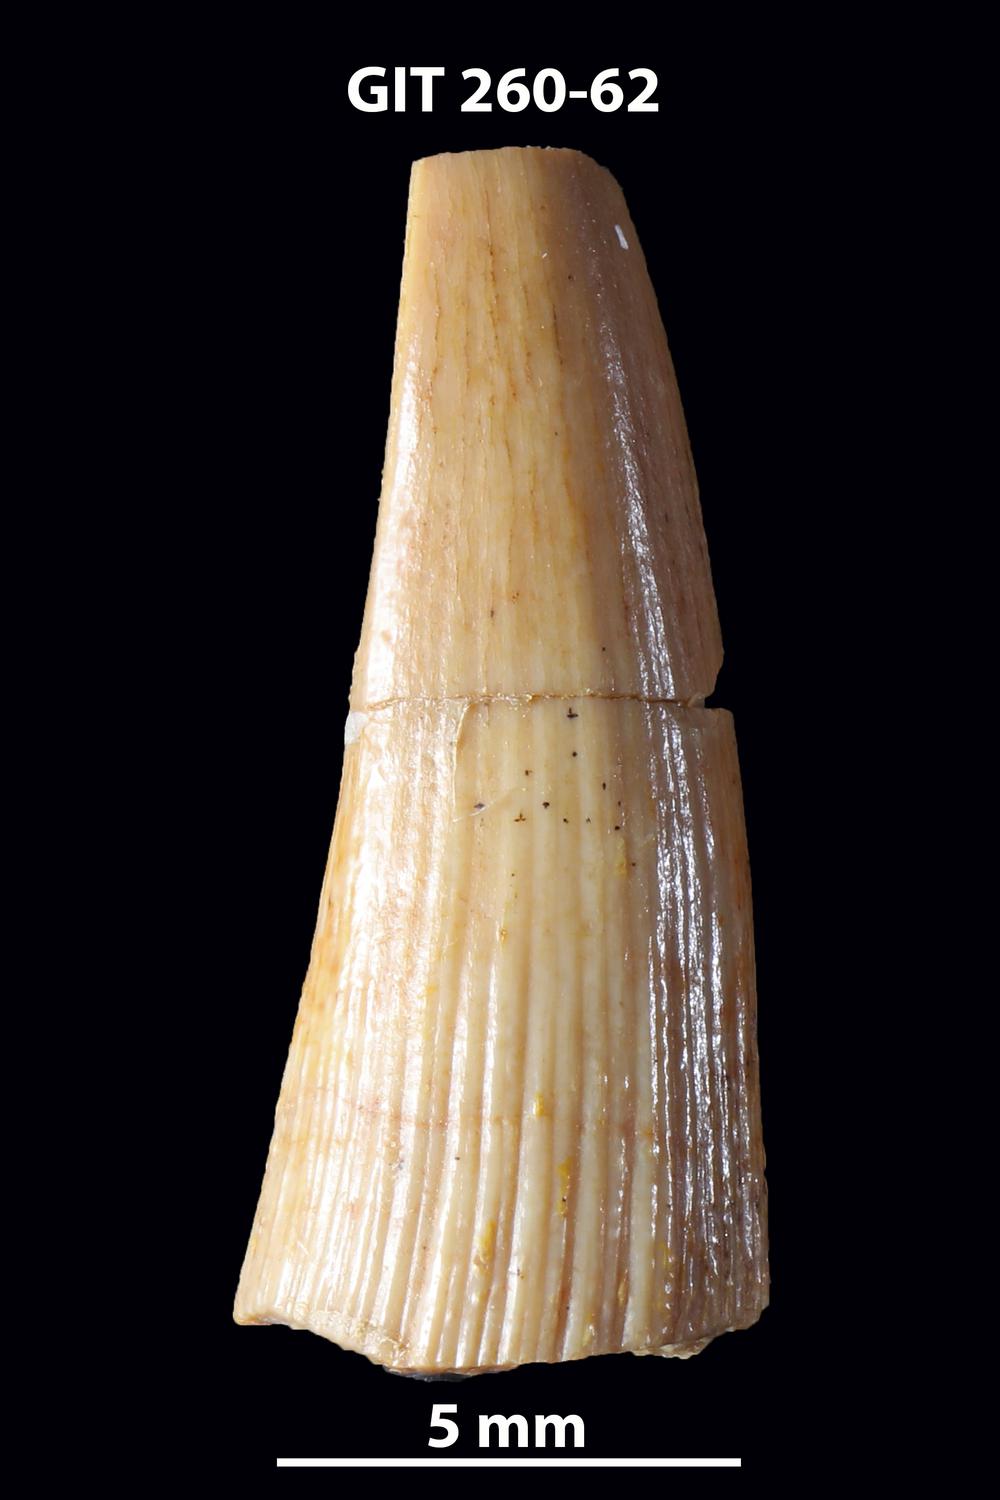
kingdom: Animalia
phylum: Chordata
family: Homostiidae
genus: Homostius
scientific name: Homostius
